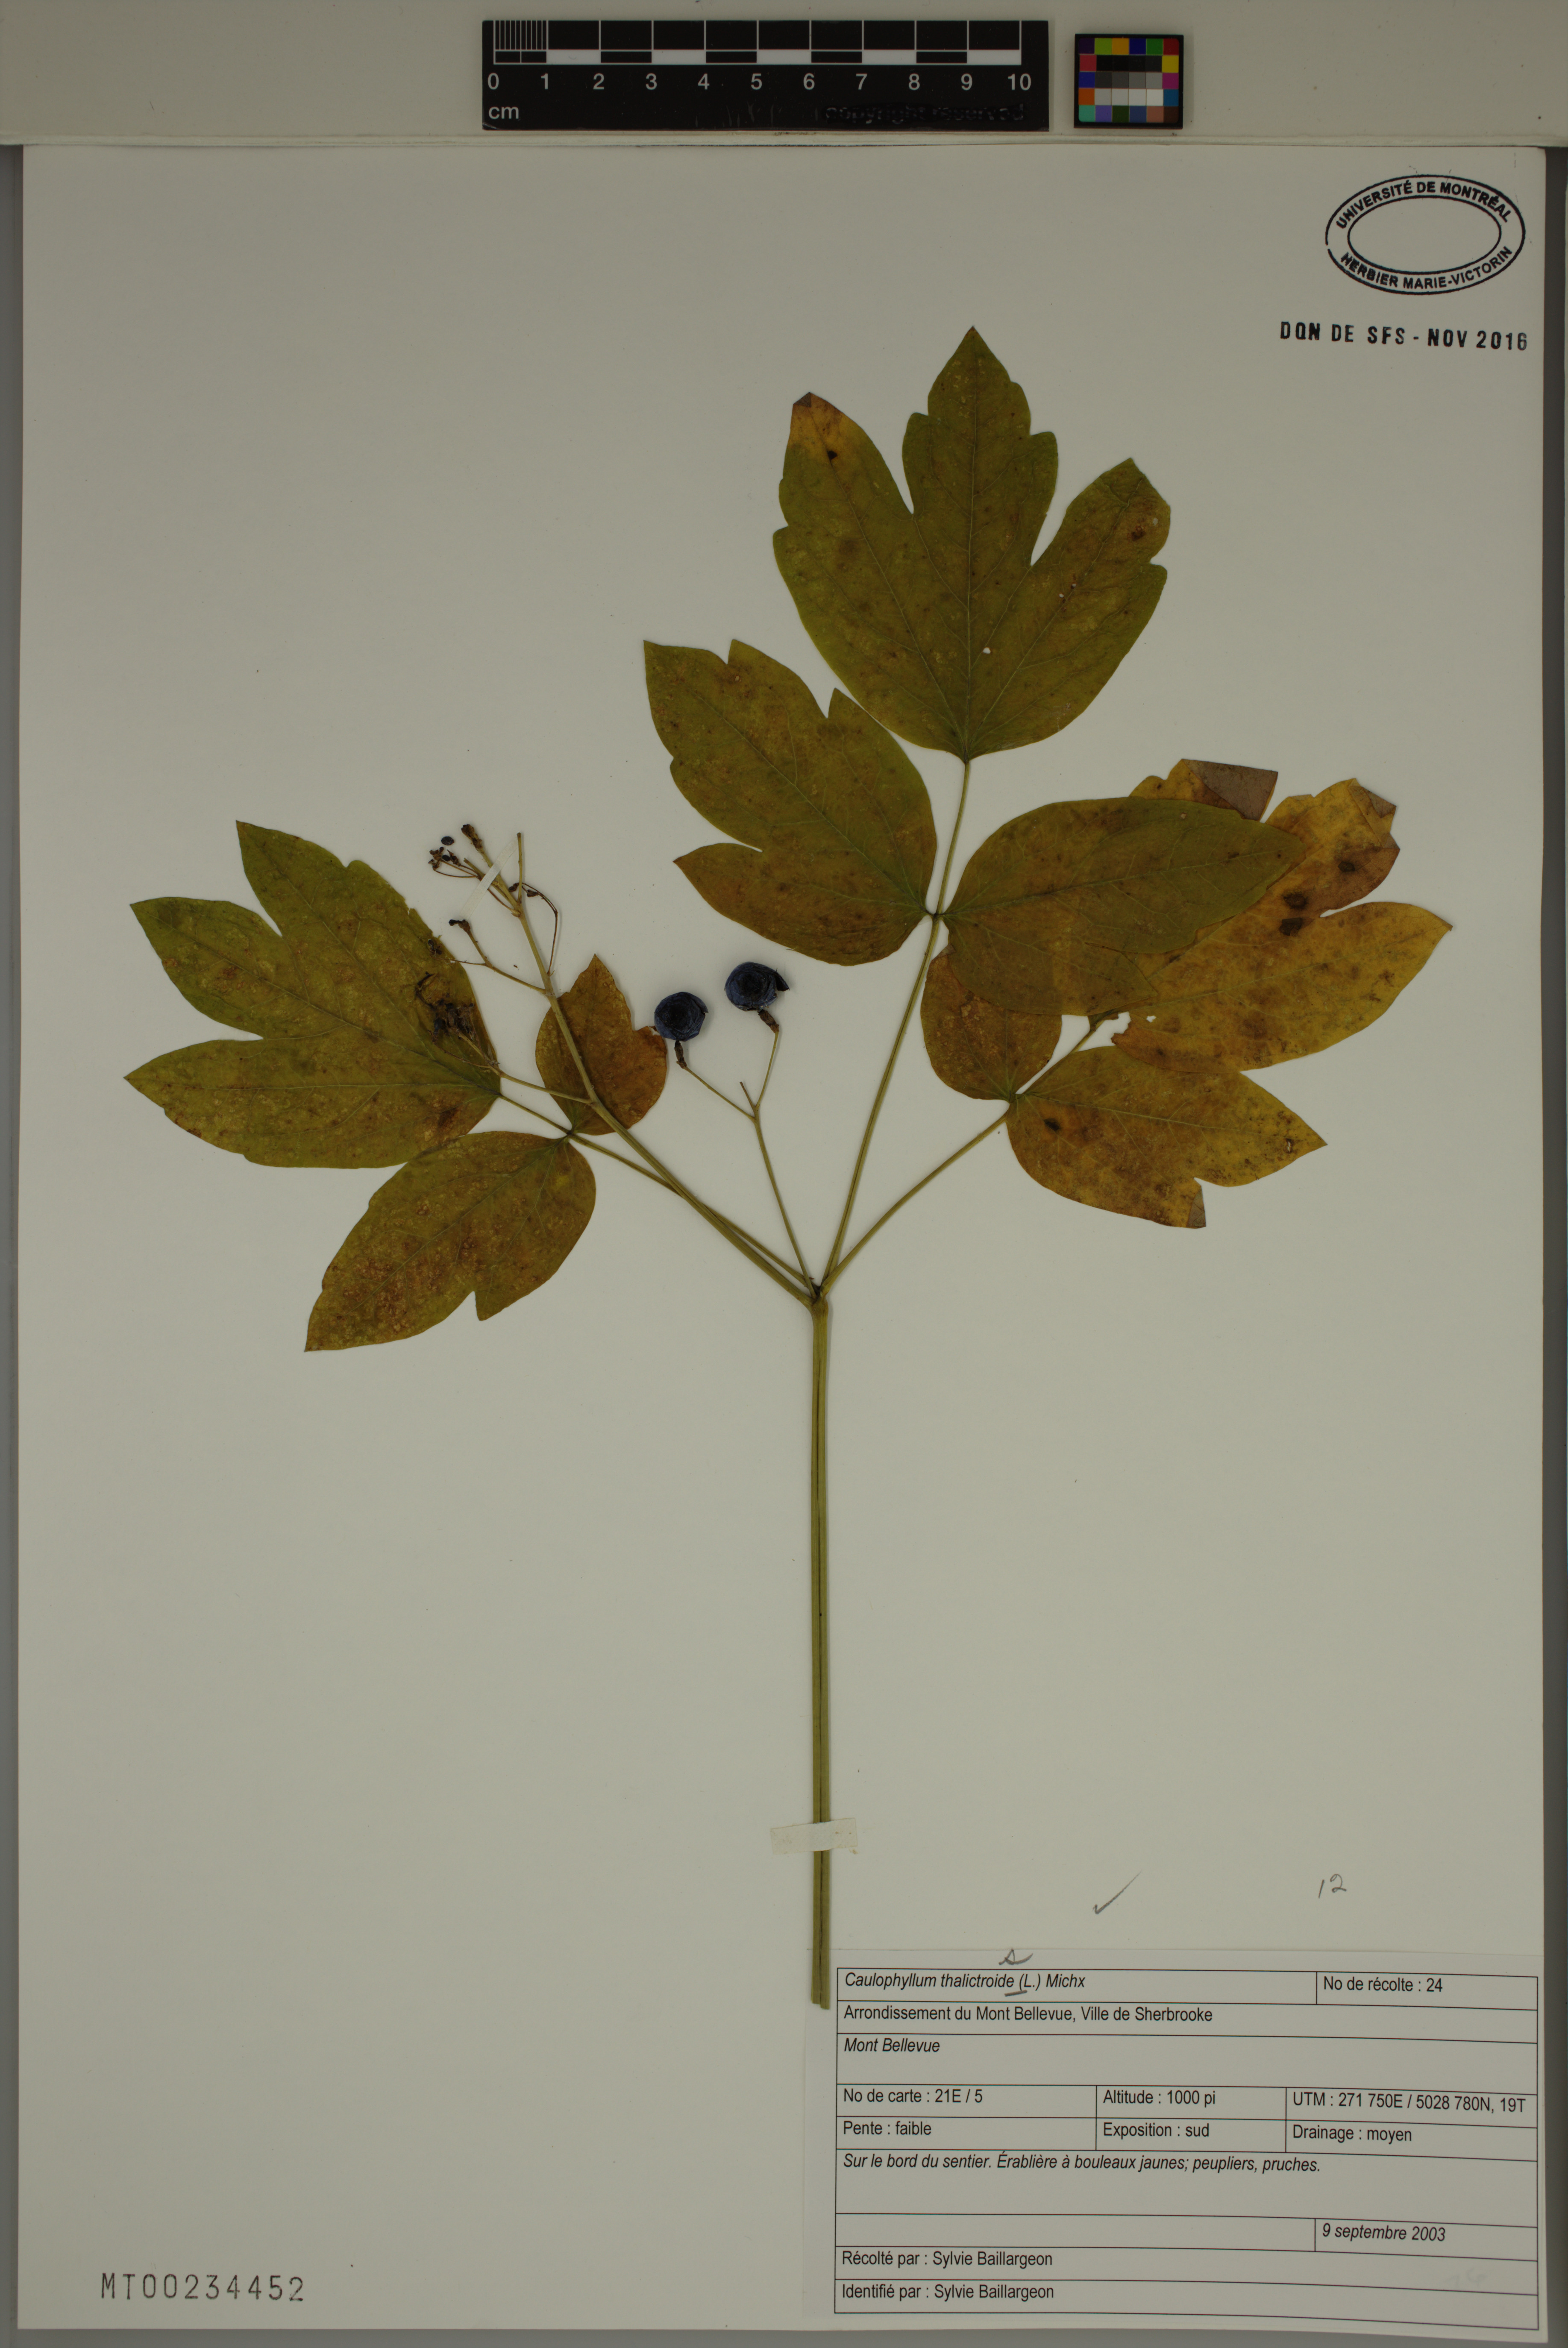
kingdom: Plantae
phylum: Tracheophyta
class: Magnoliopsida
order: Ranunculales
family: Berberidaceae
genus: Caulophyllum
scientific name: Caulophyllum thalictroides
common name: Blue cohosh
